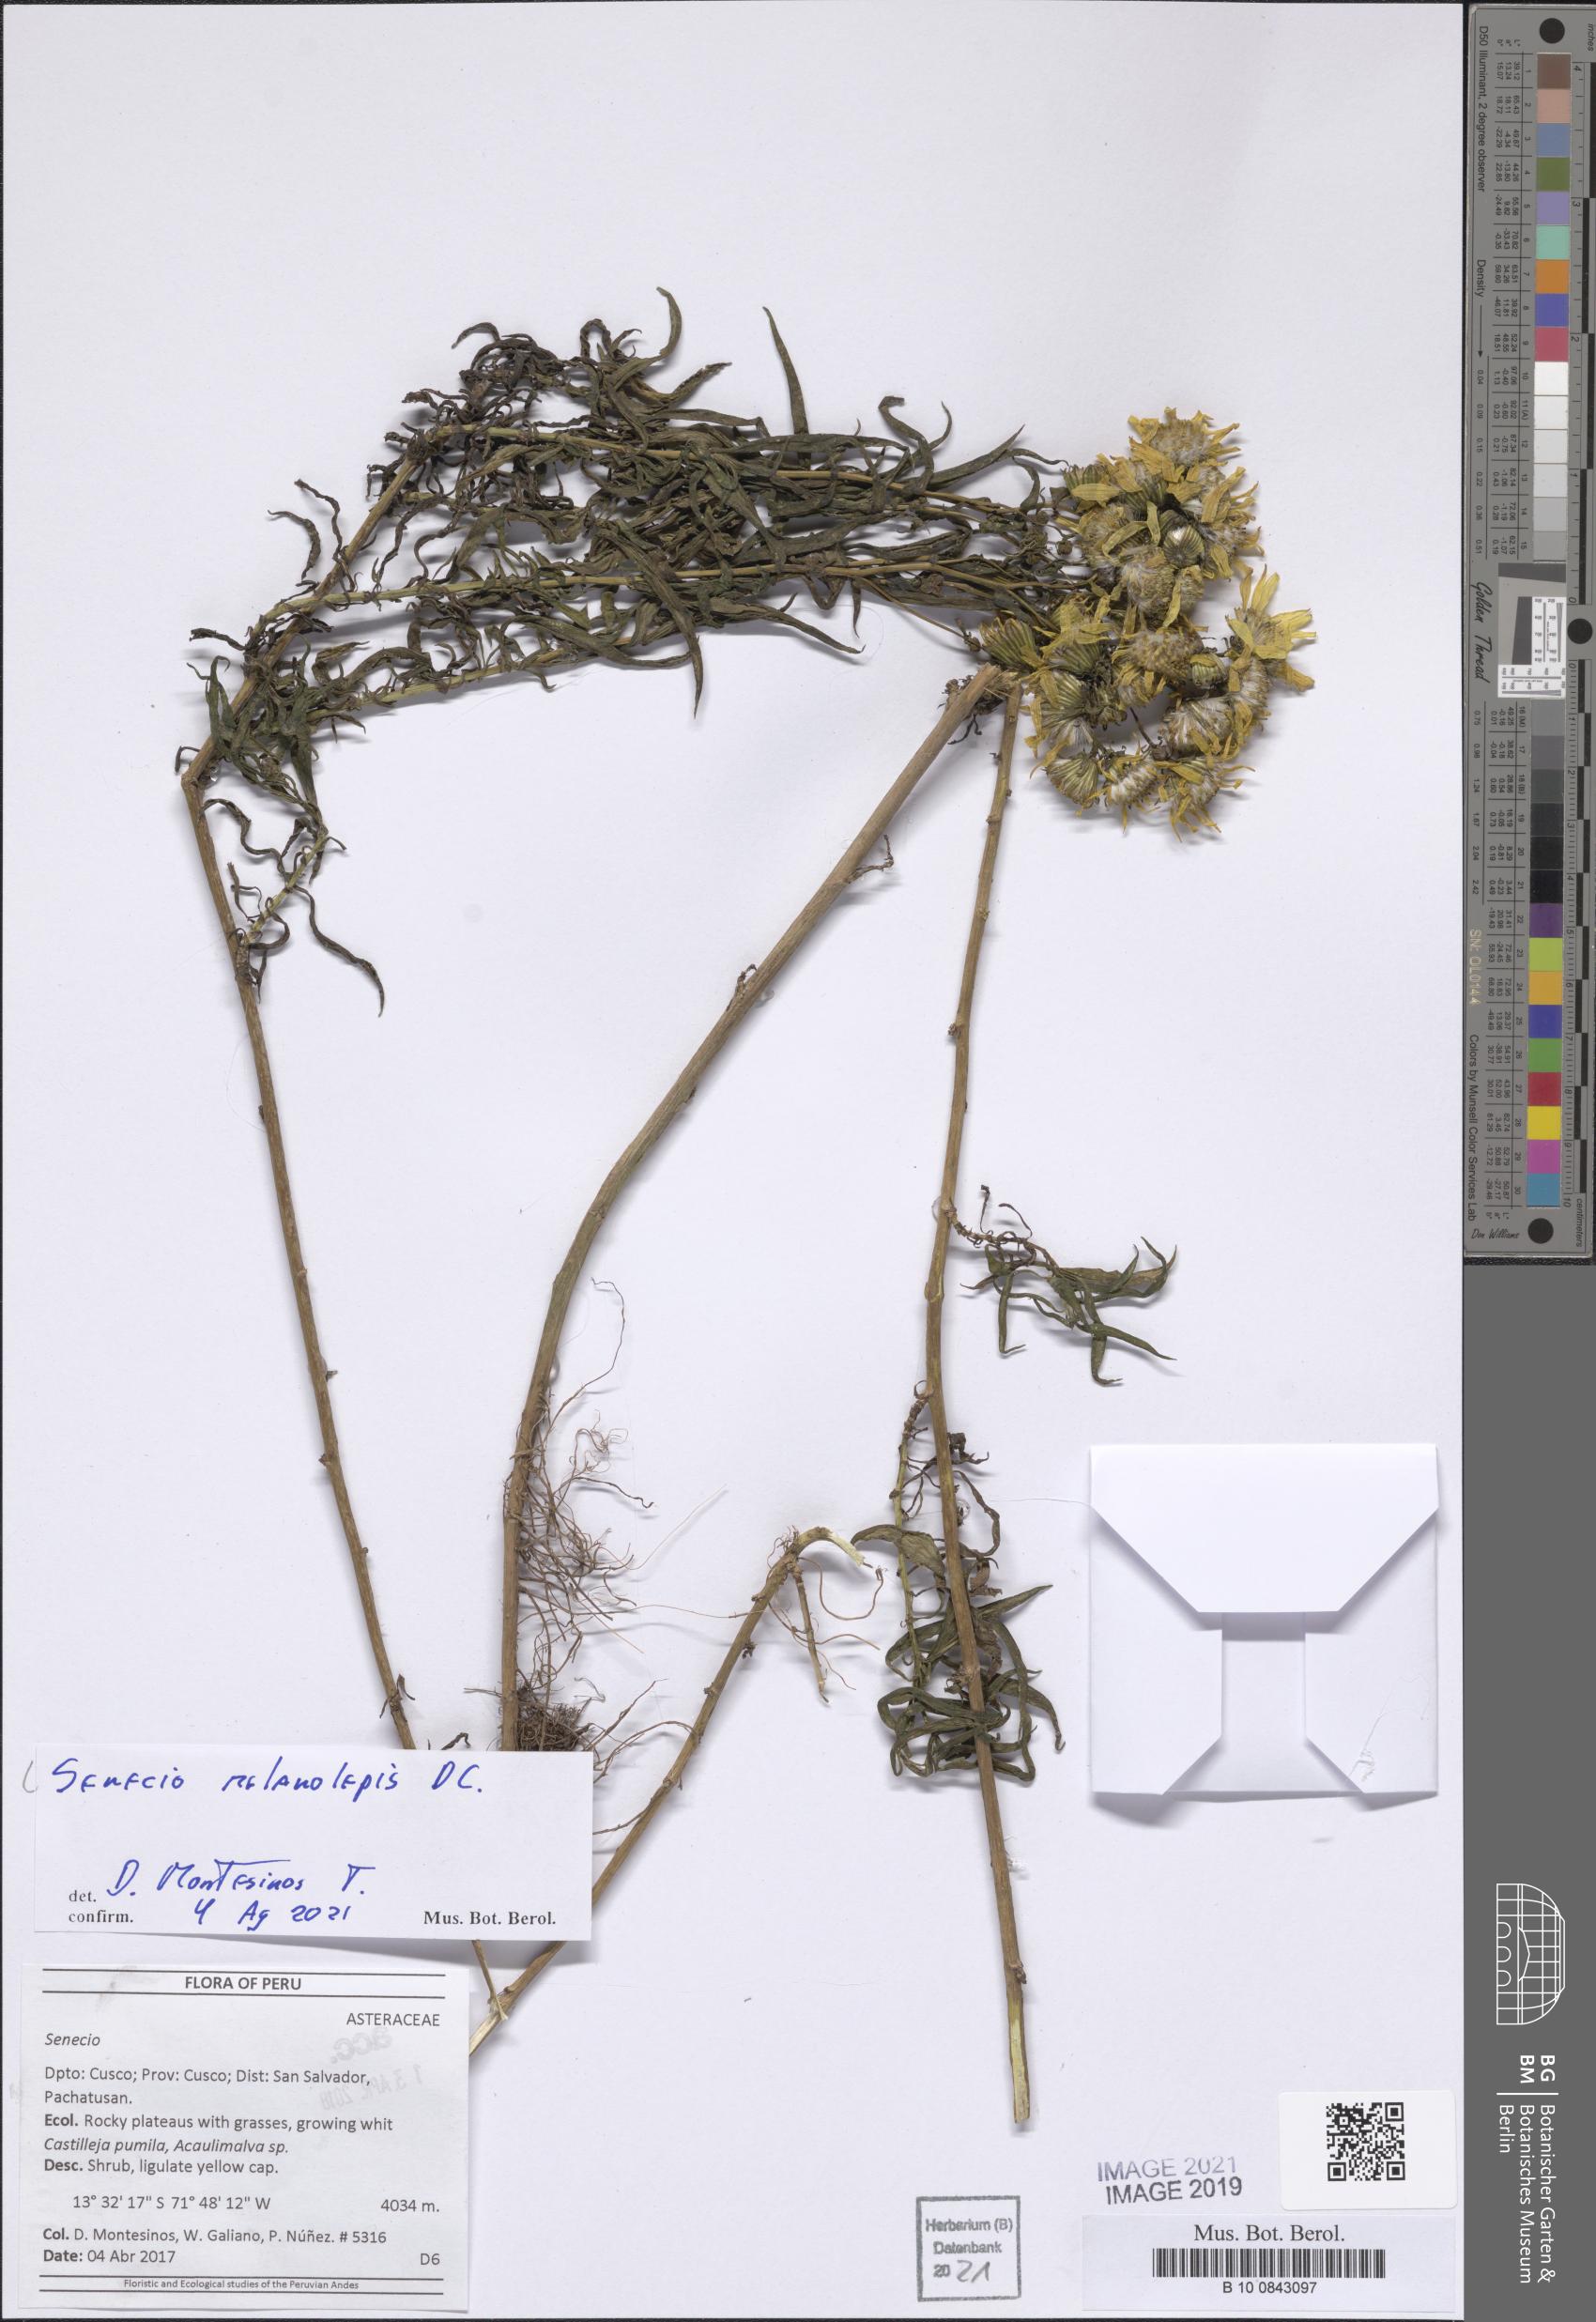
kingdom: Plantae
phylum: Tracheophyta
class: Magnoliopsida
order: Asterales
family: Asteraceae
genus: Senecio
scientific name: Senecio melanolepis
